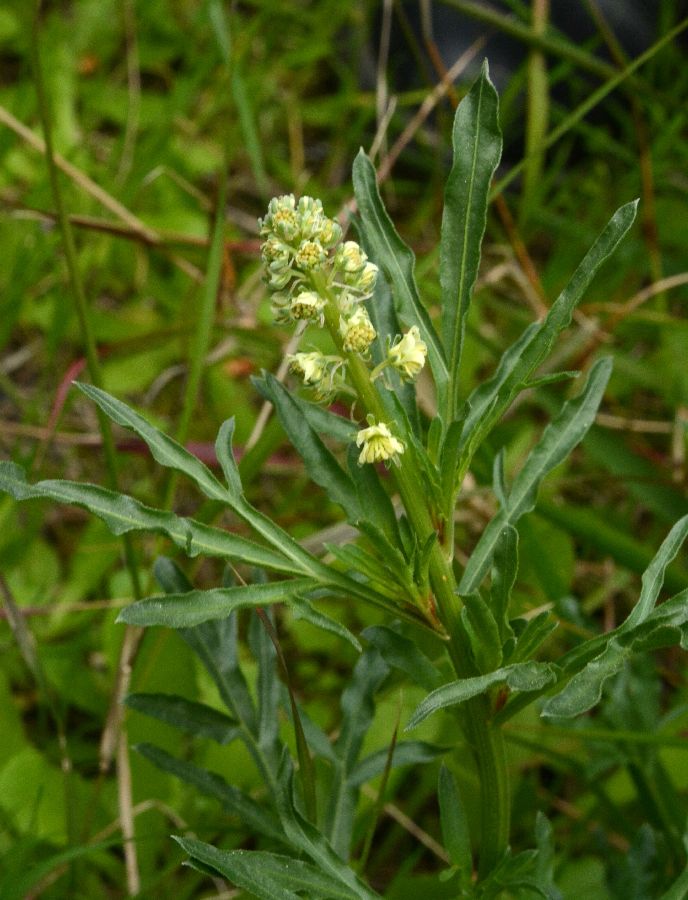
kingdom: Plantae
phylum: Tracheophyta
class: Magnoliopsida
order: Brassicales
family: Resedaceae
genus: Reseda
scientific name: Reseda lutea
